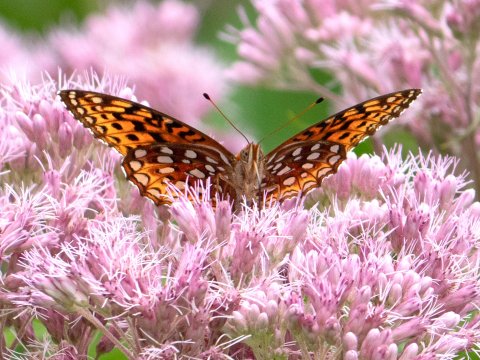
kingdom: Animalia
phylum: Arthropoda
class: Insecta
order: Lepidoptera
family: Nymphalidae
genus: Speyeria
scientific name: Speyeria aphrodite
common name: Aphrodite Fritillary
